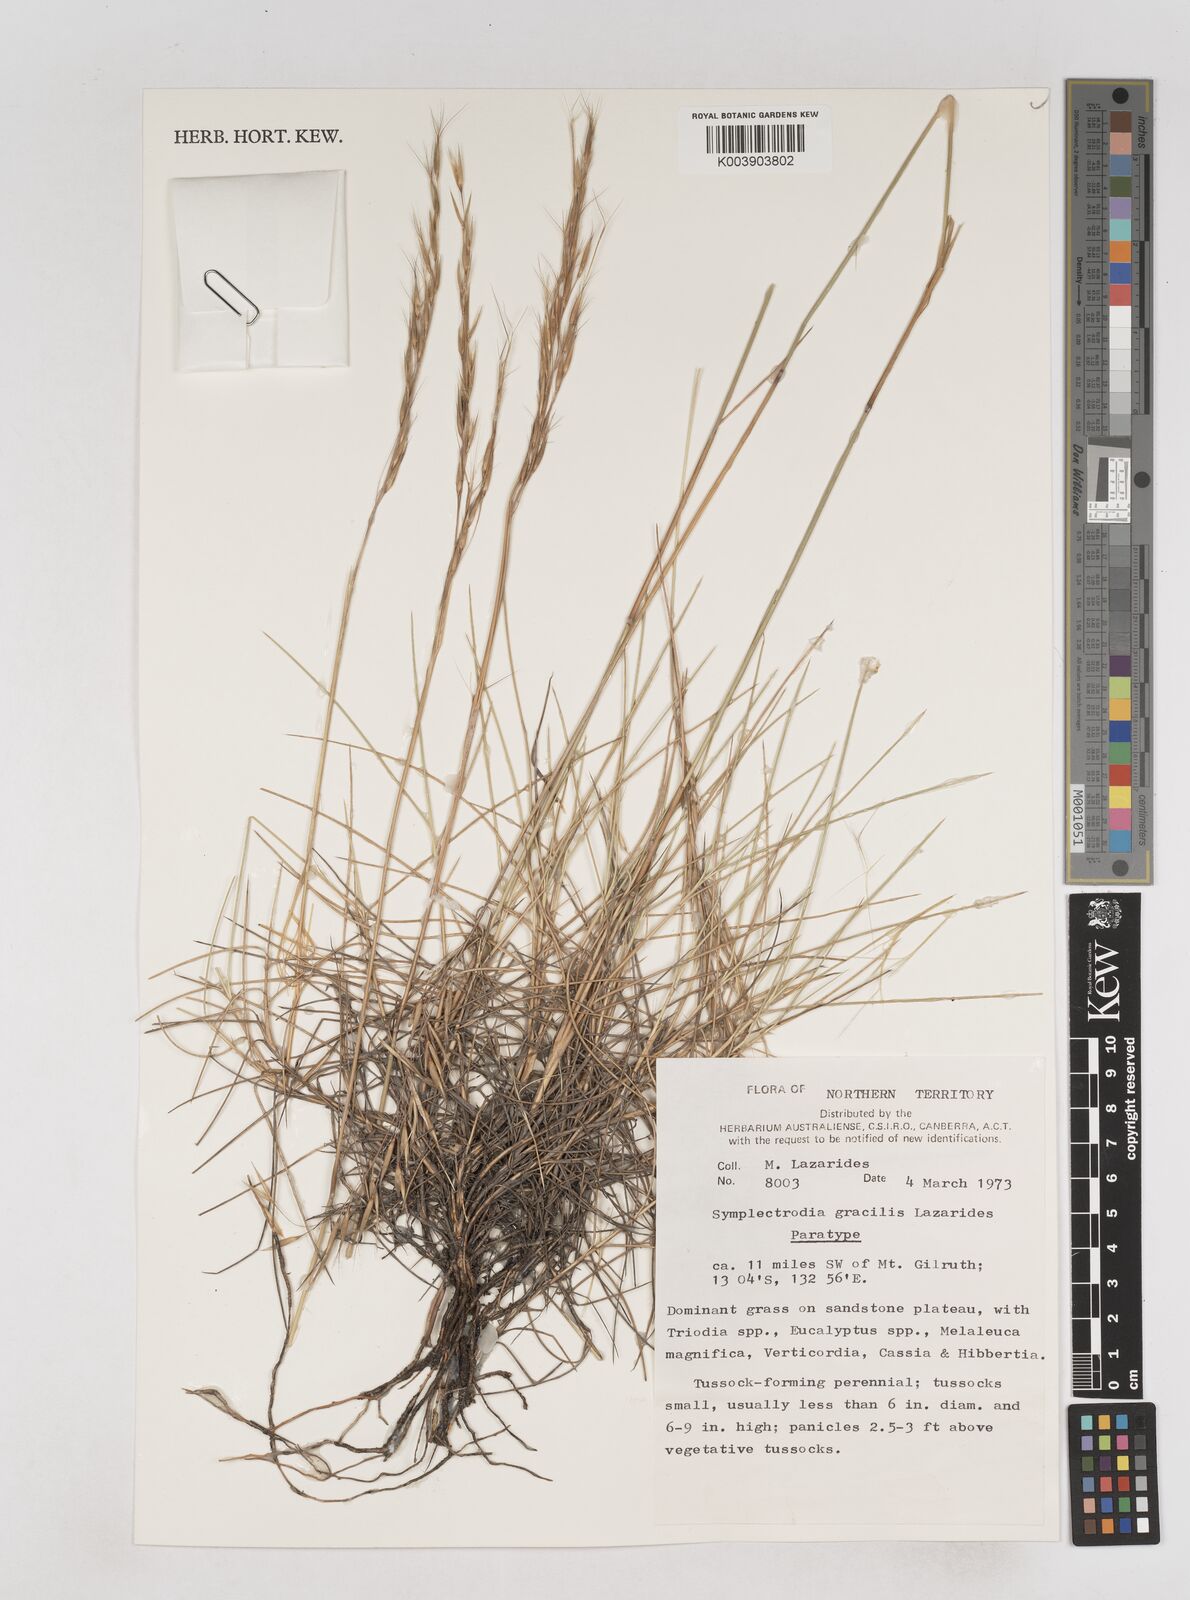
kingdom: Plantae
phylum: Tracheophyta
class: Liliopsida
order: Poales
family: Poaceae
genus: Triodia
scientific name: Triodia gracilis
